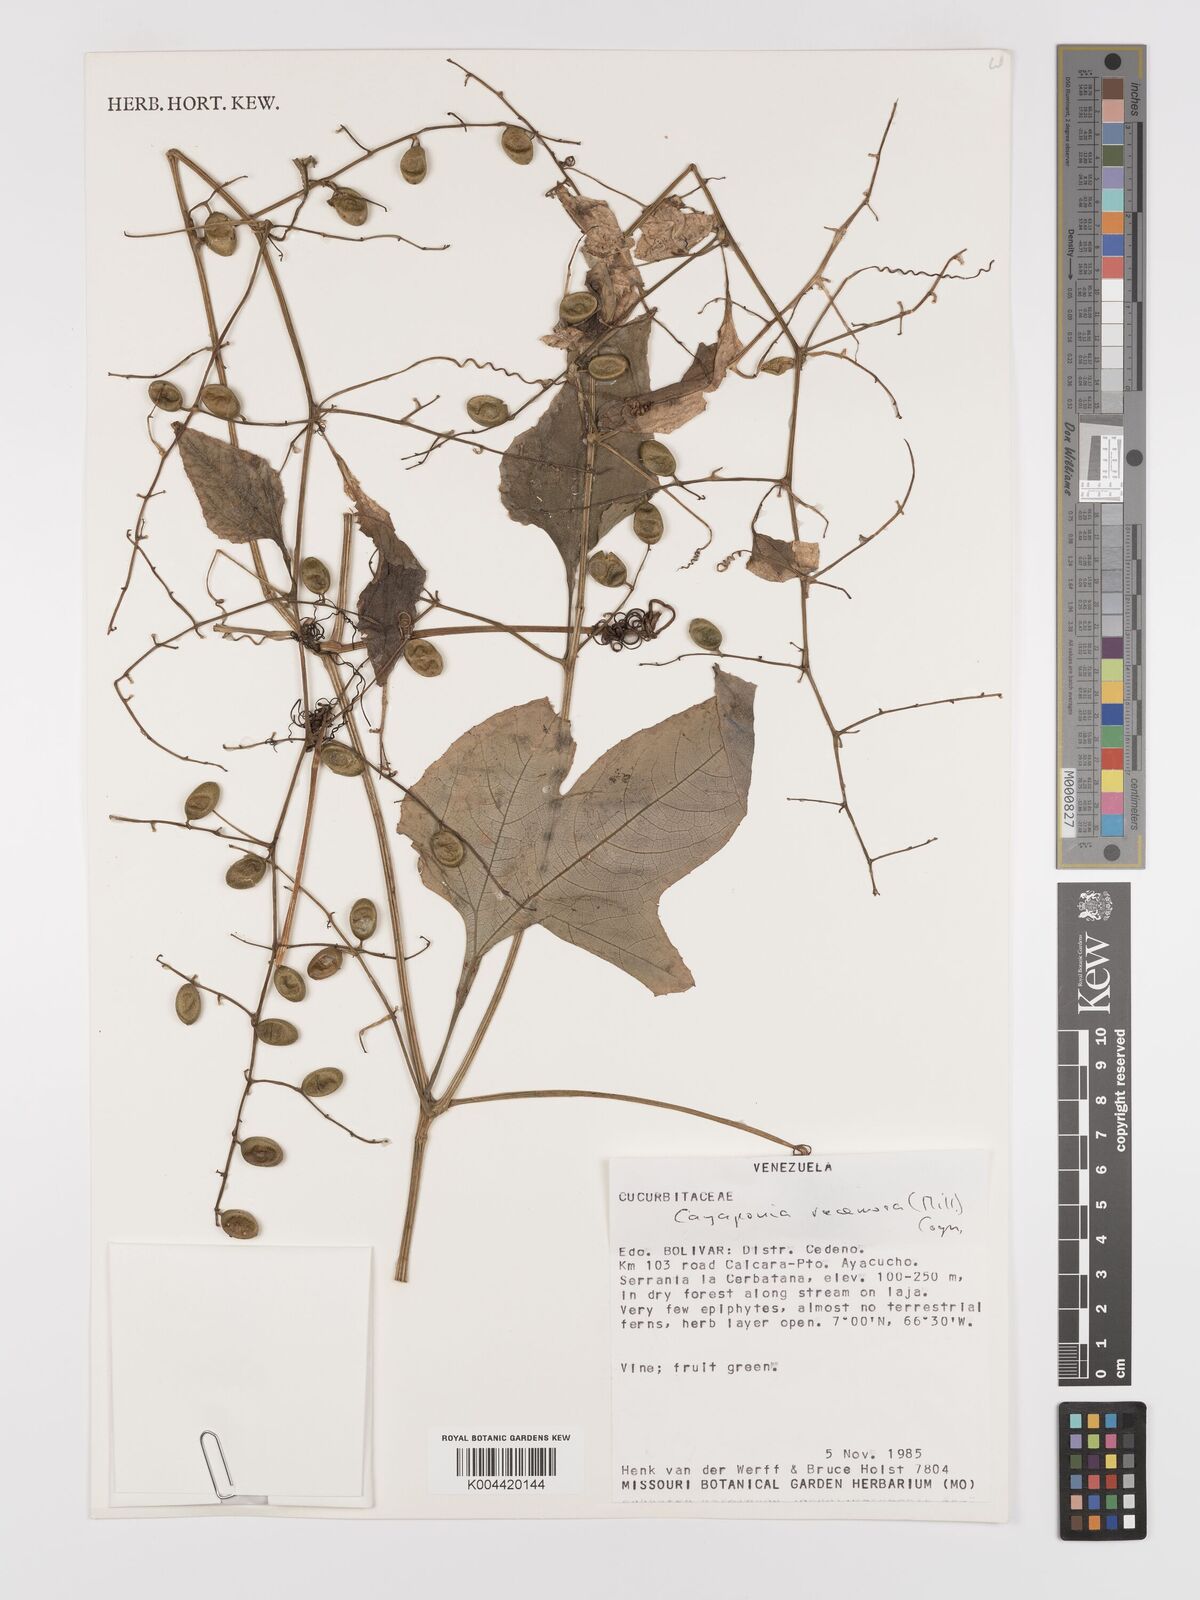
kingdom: Plantae
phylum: Tracheophyta
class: Magnoliopsida
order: Cucurbitales
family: Cucurbitaceae
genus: Cayaponia
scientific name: Cayaponia racemosa
